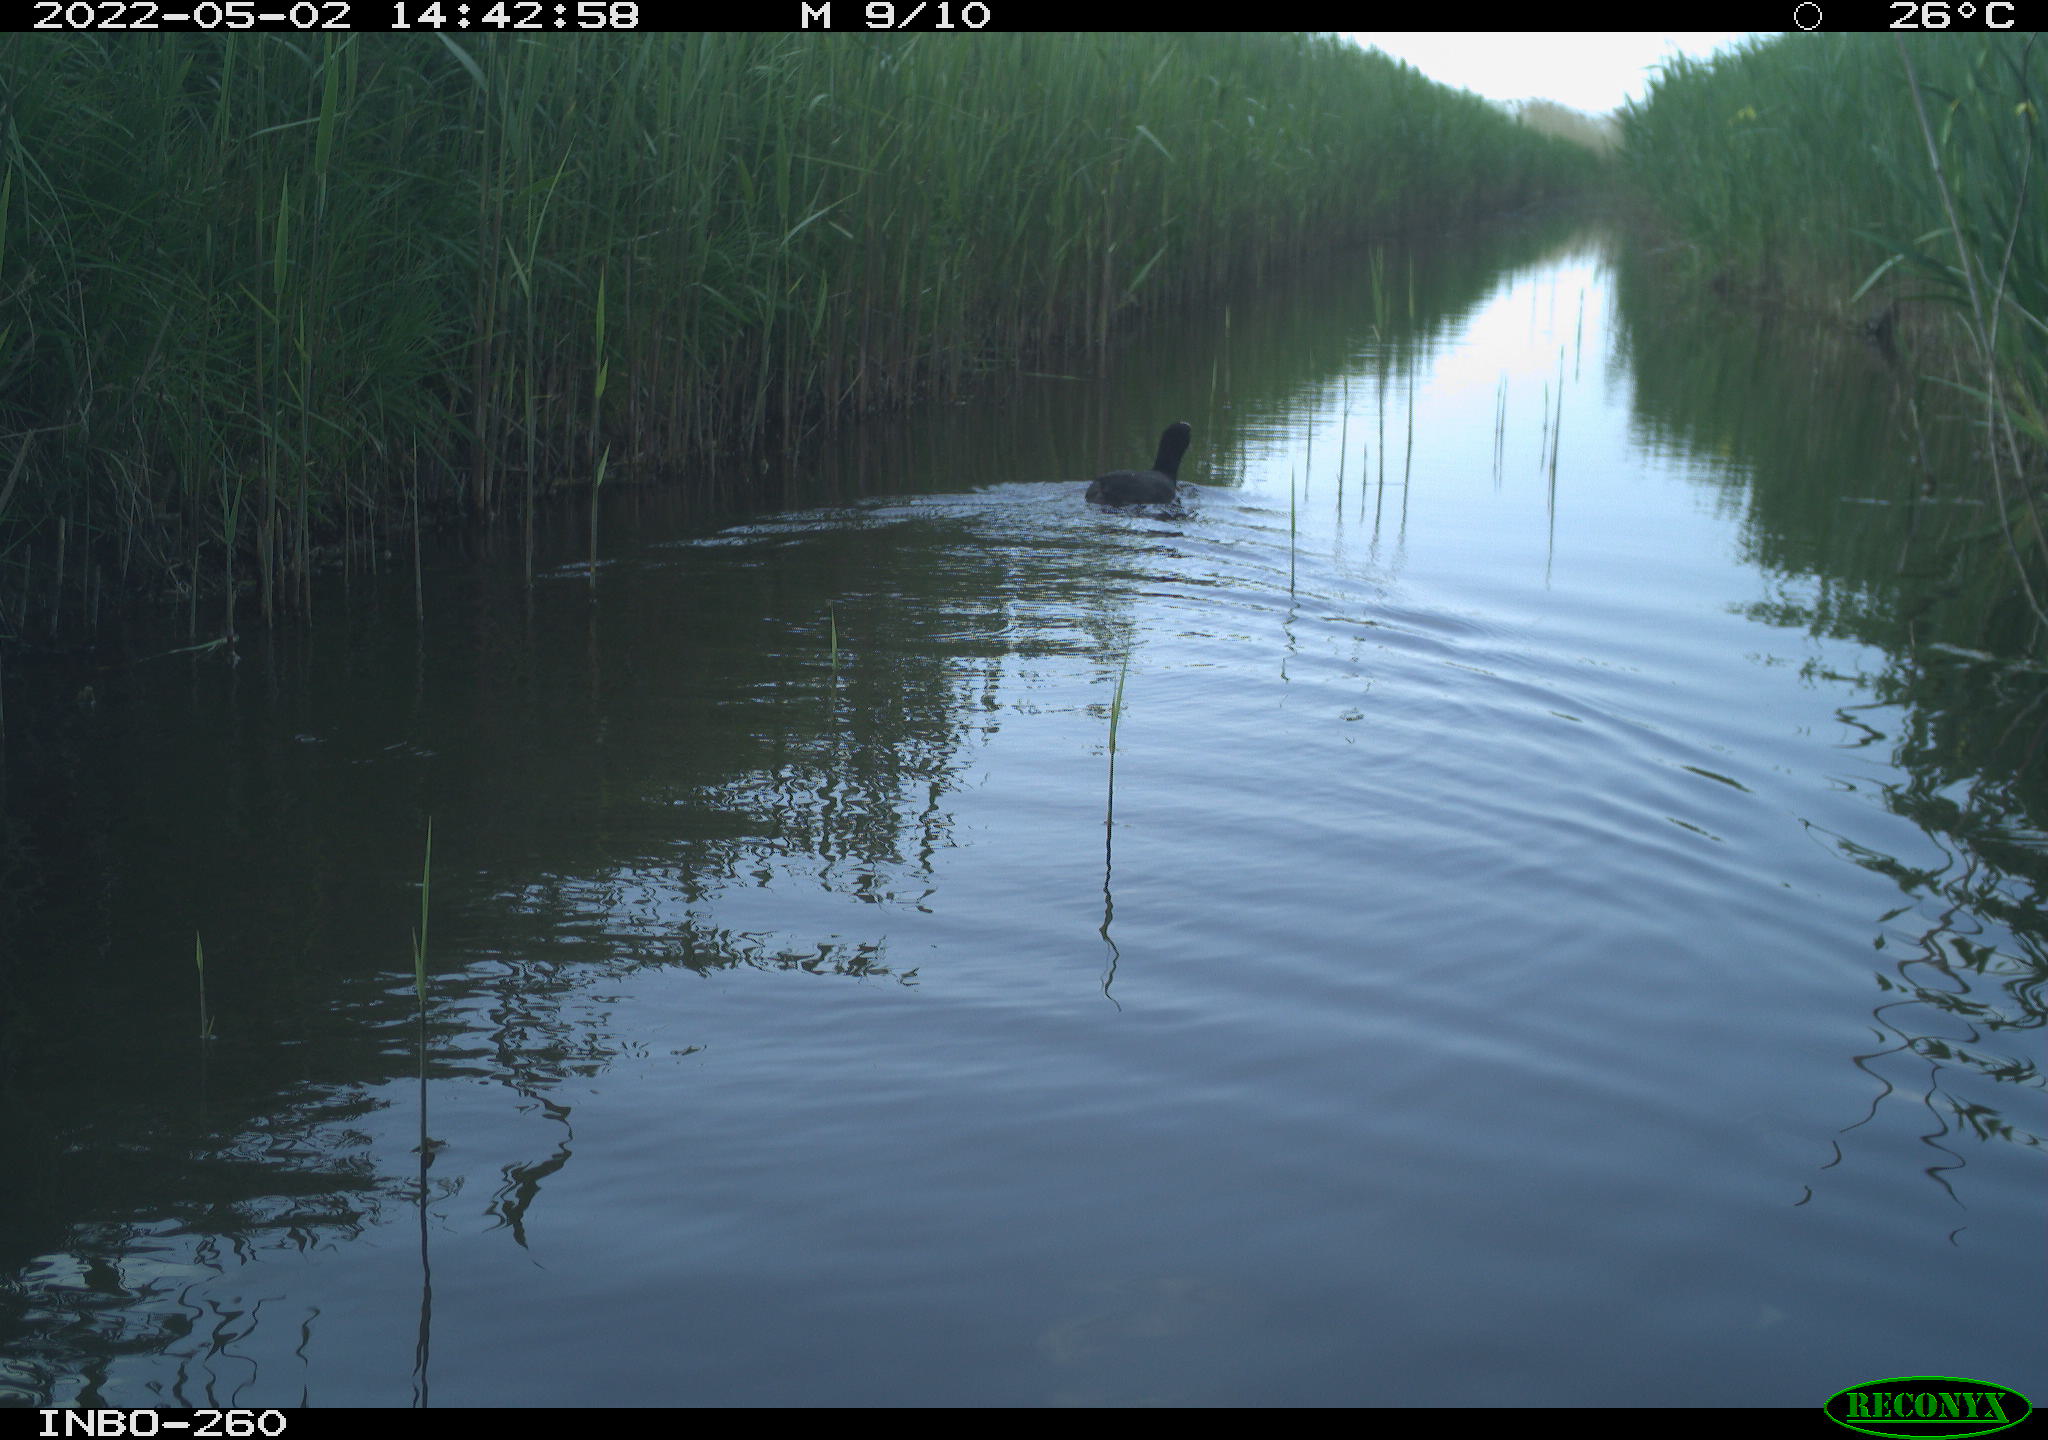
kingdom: Animalia
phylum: Chordata
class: Aves
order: Gruiformes
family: Rallidae
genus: Fulica
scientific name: Fulica atra
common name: Eurasian coot
